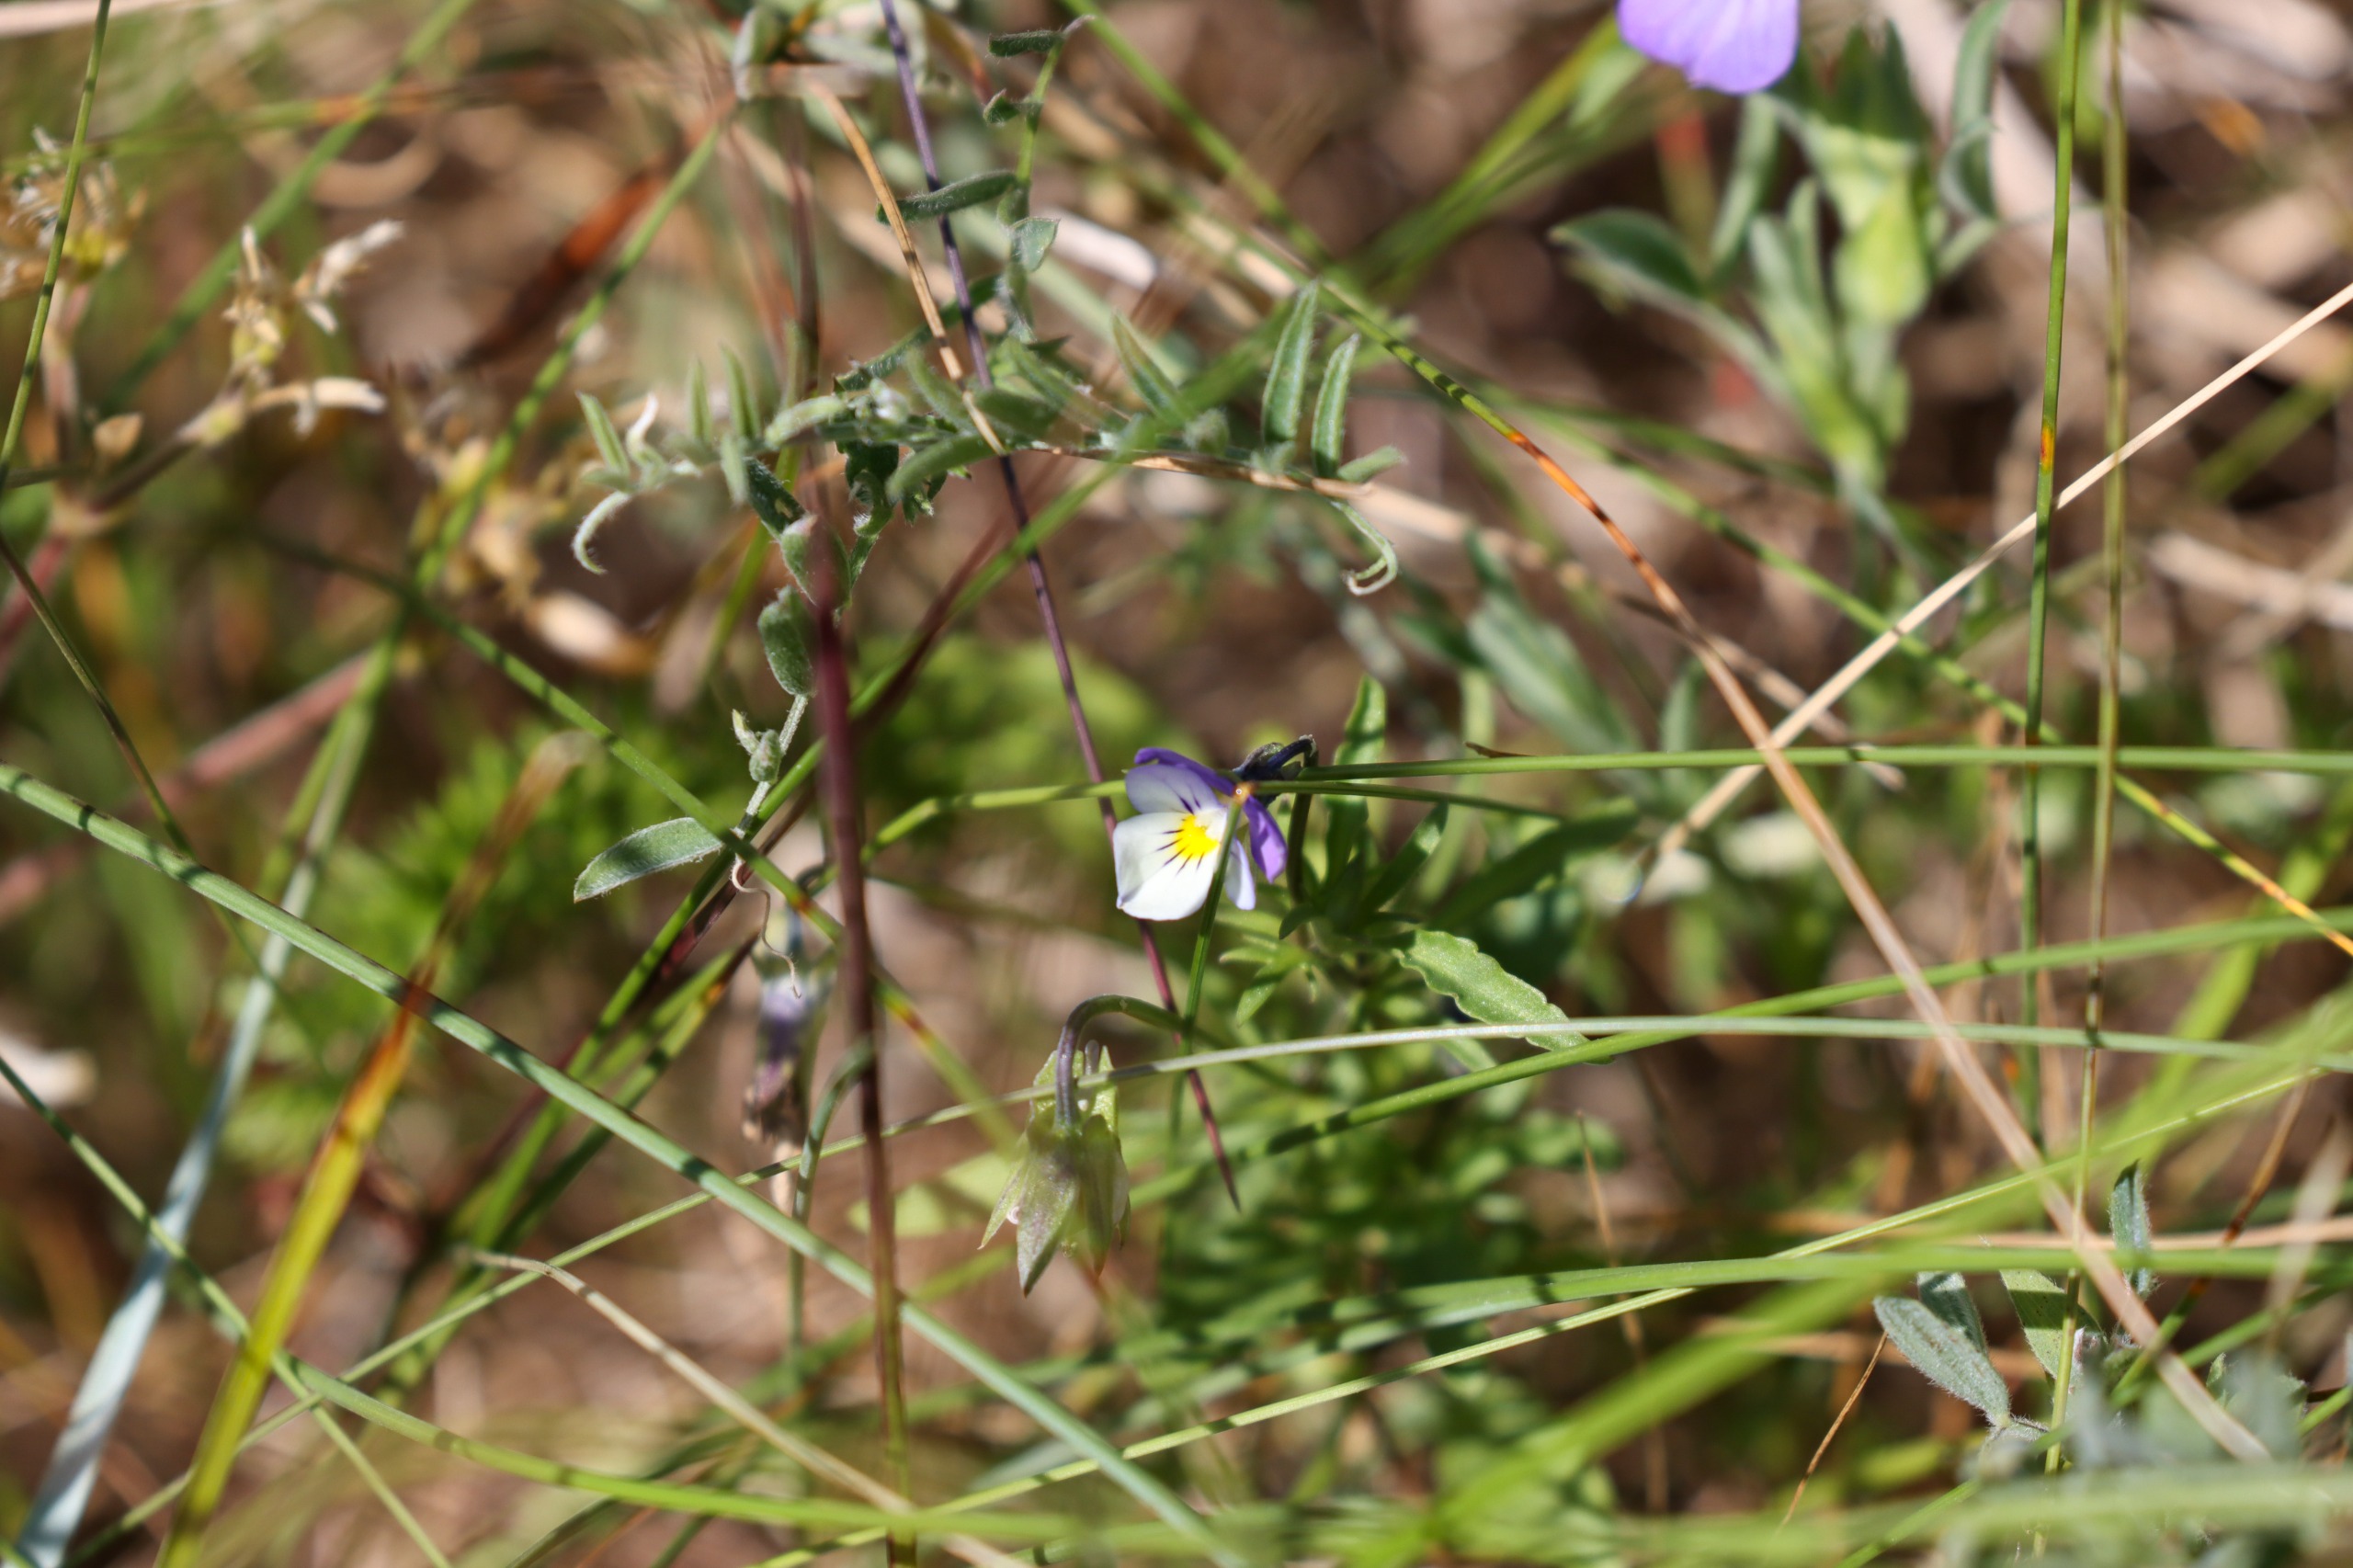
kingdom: Plantae
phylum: Tracheophyta
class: Magnoliopsida
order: Malpighiales
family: Violaceae
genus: Viola
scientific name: Viola tricolor
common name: Stedmoderblomst
